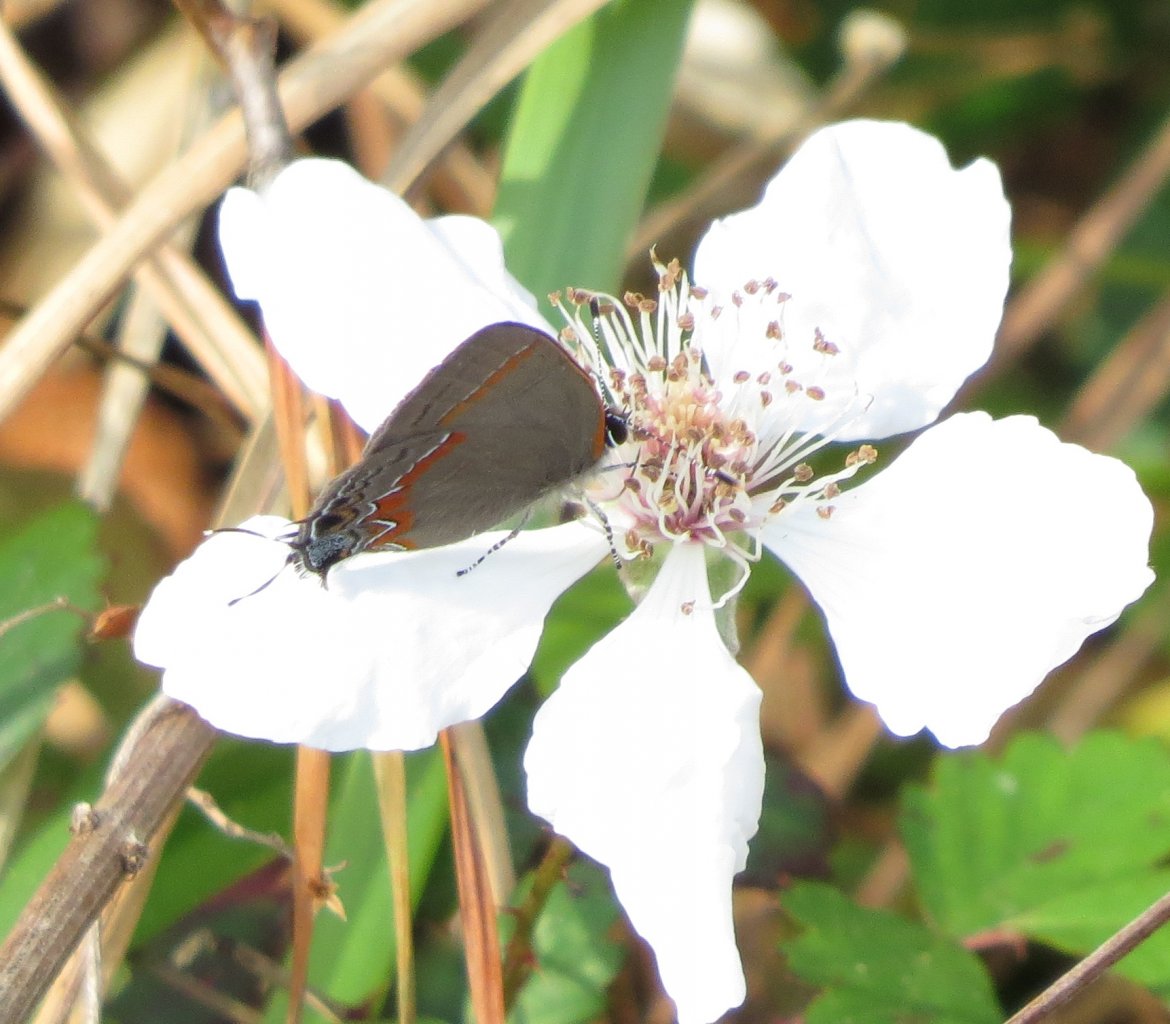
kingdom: Animalia
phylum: Arthropoda
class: Insecta
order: Lepidoptera
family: Lycaenidae
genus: Calycopis
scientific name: Calycopis cecrops
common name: Red-banded Hairstreak
